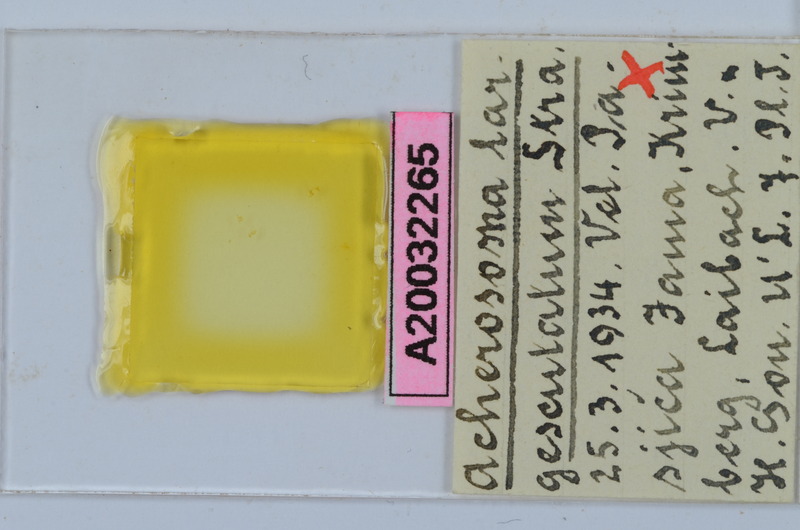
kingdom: Animalia
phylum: Arthropoda
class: Diplopoda
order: Chordeumatida
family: Anthogonidae
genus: Haasia
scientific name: Haasia largescutata
